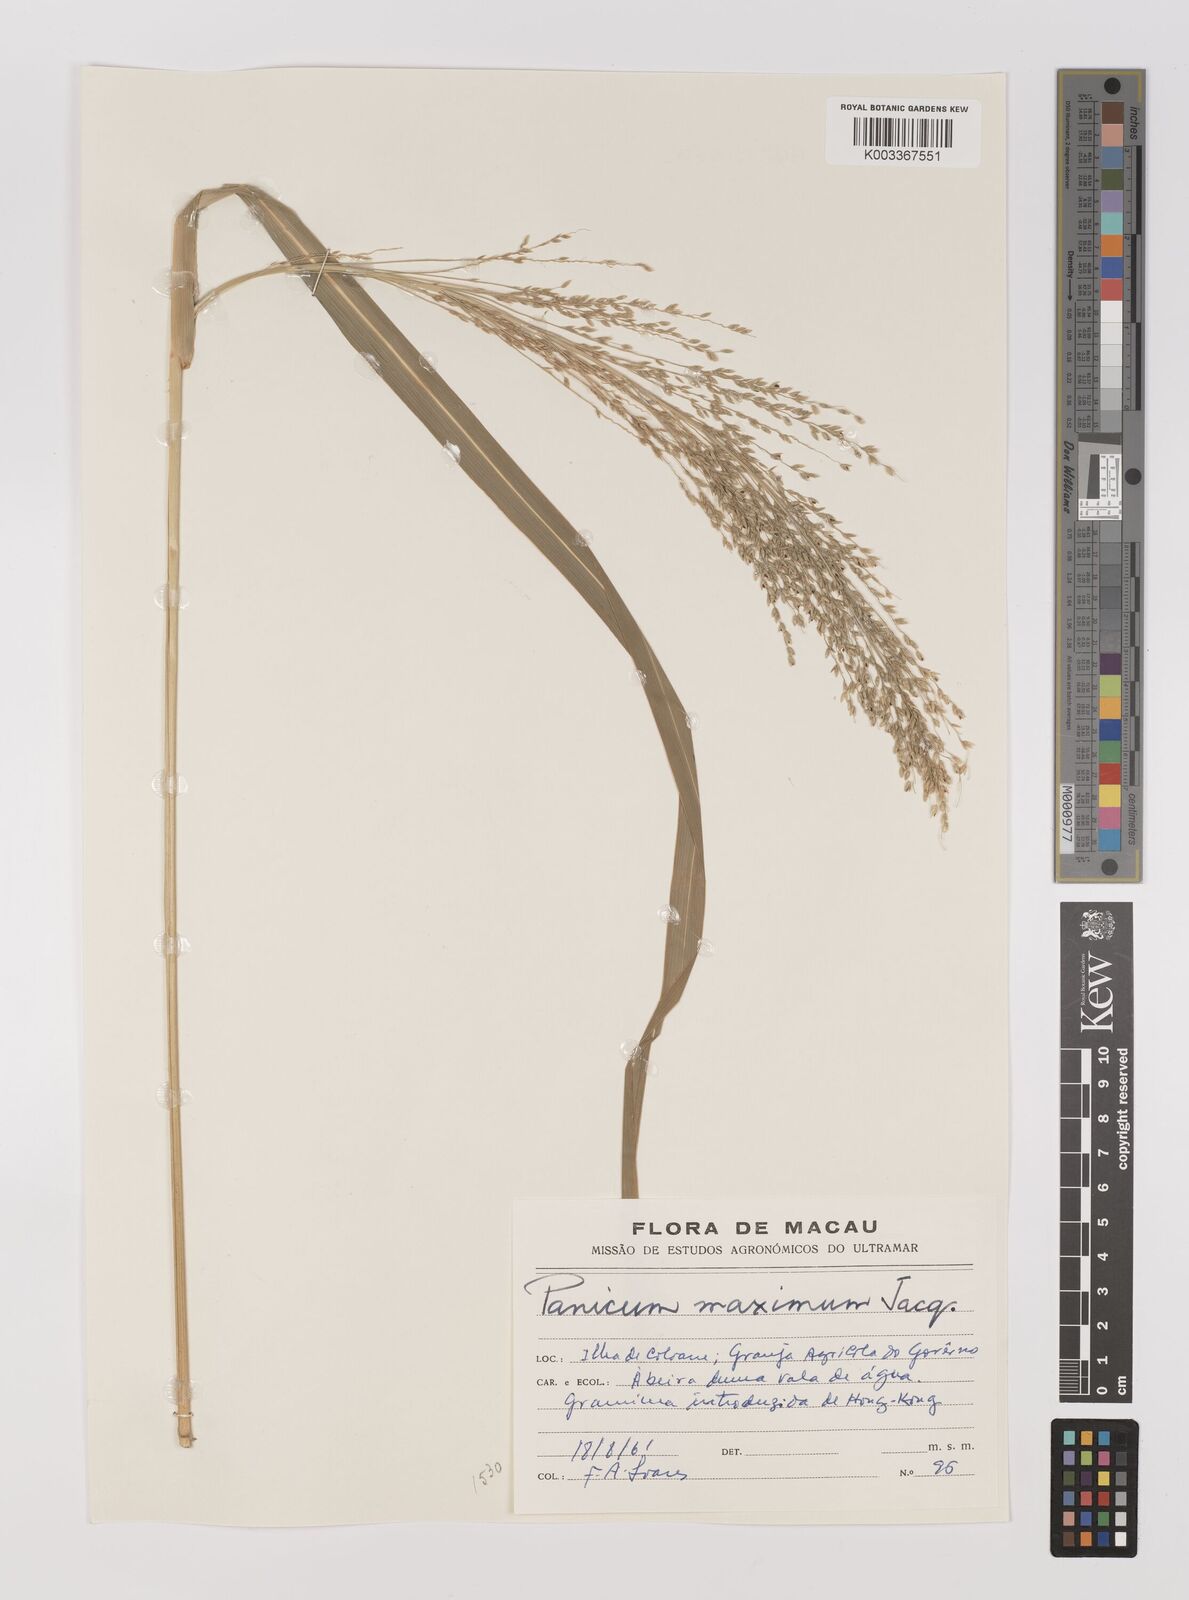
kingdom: Plantae
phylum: Tracheophyta
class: Liliopsida
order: Poales
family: Poaceae
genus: Megathyrsus
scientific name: Megathyrsus maximus
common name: Guineagrass
